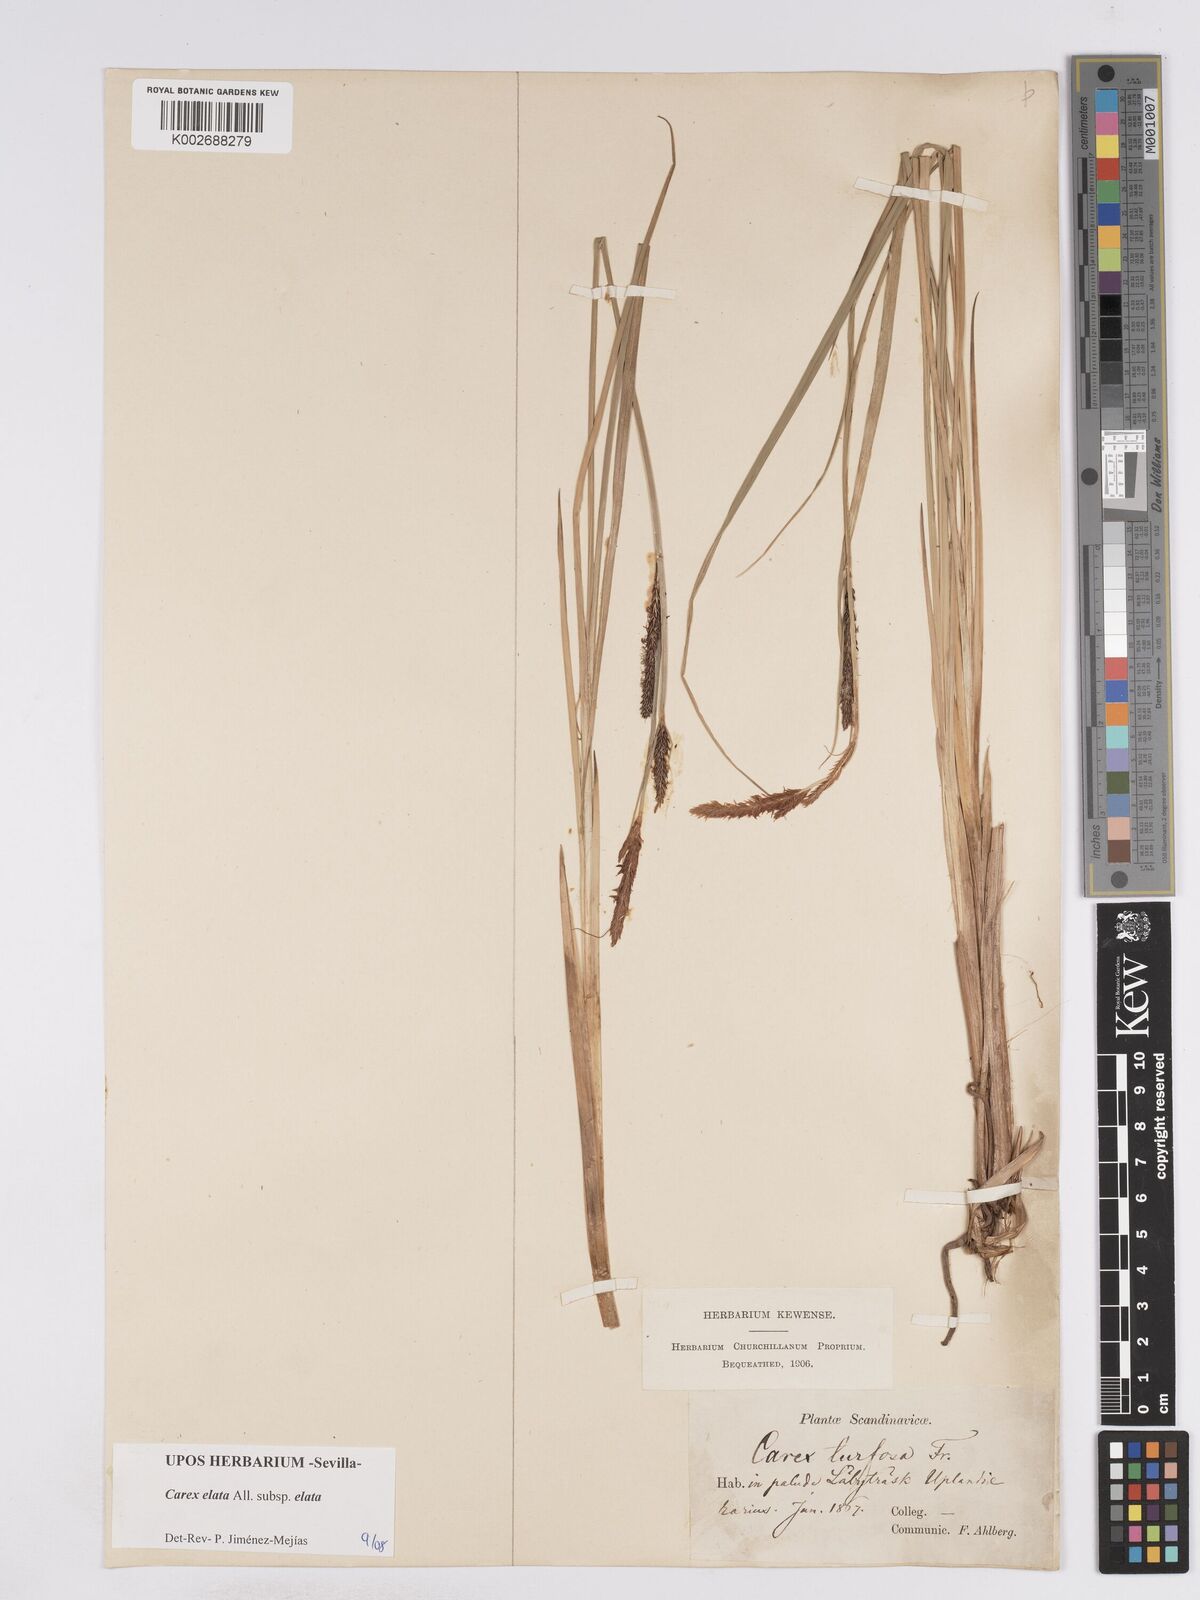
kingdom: Plantae
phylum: Tracheophyta
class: Liliopsida
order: Poales
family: Cyperaceae
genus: Carex
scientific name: Carex elata
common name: Tufted sedge
